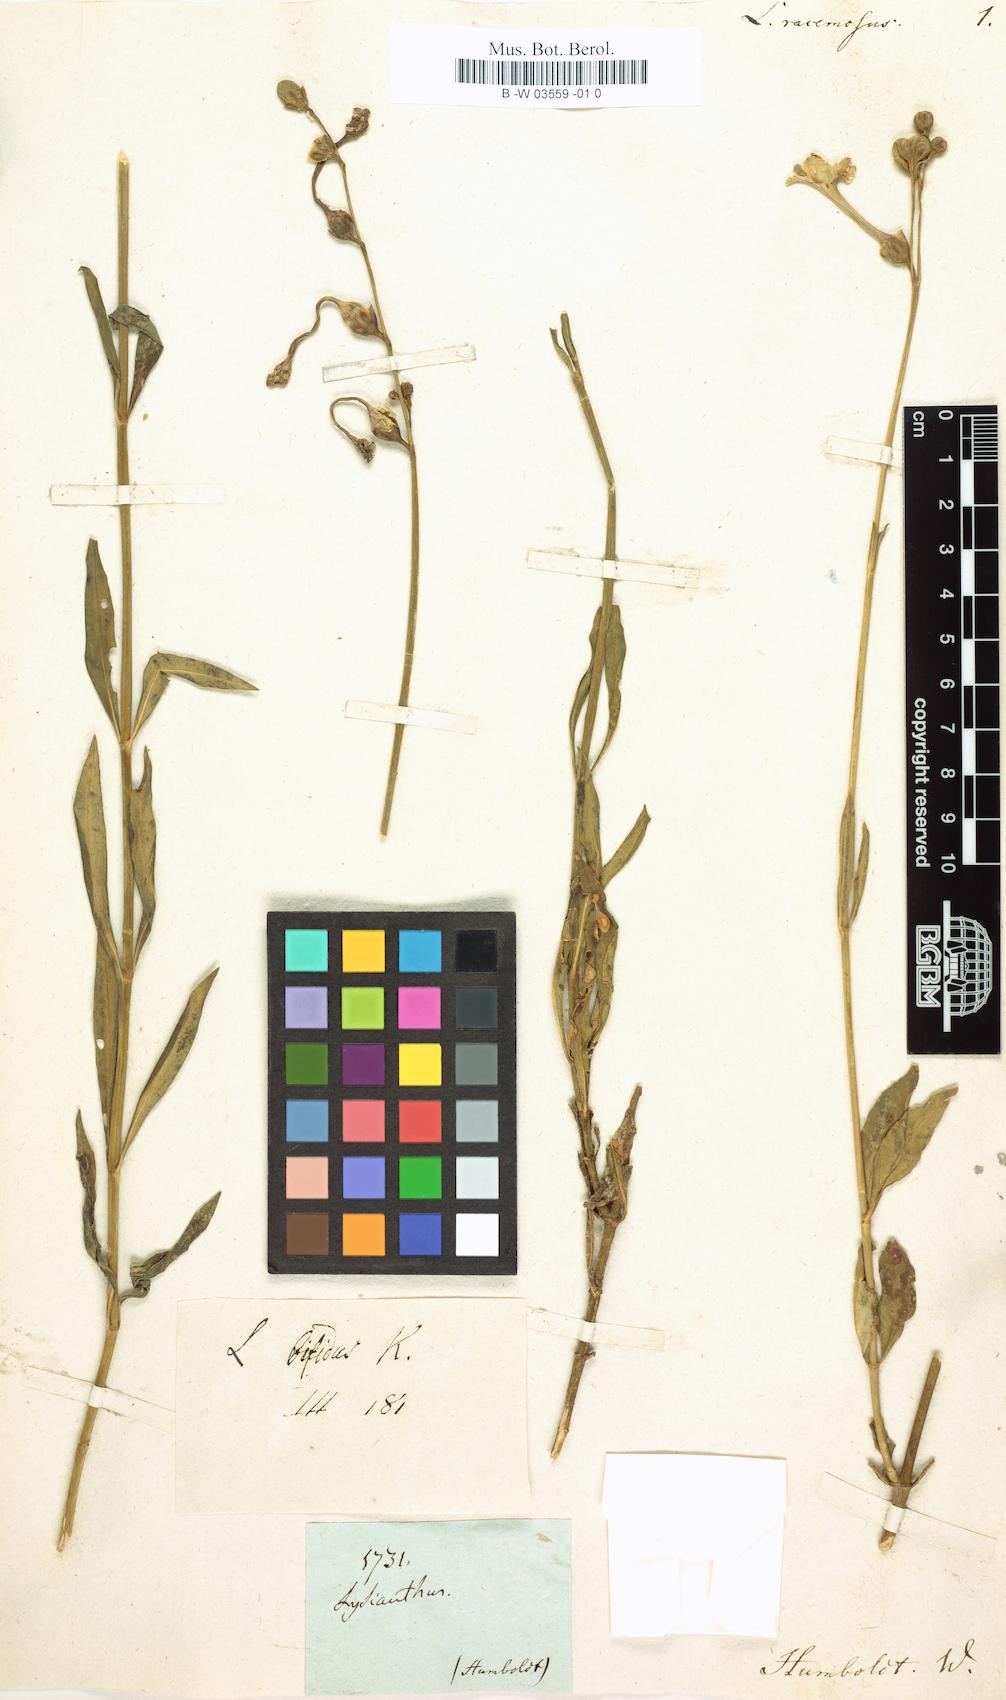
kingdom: Plantae
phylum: Tracheophyta
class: Magnoliopsida
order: Gentianales
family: Gentianaceae
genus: Chelonanthus
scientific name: Chelonanthus angustifolius
